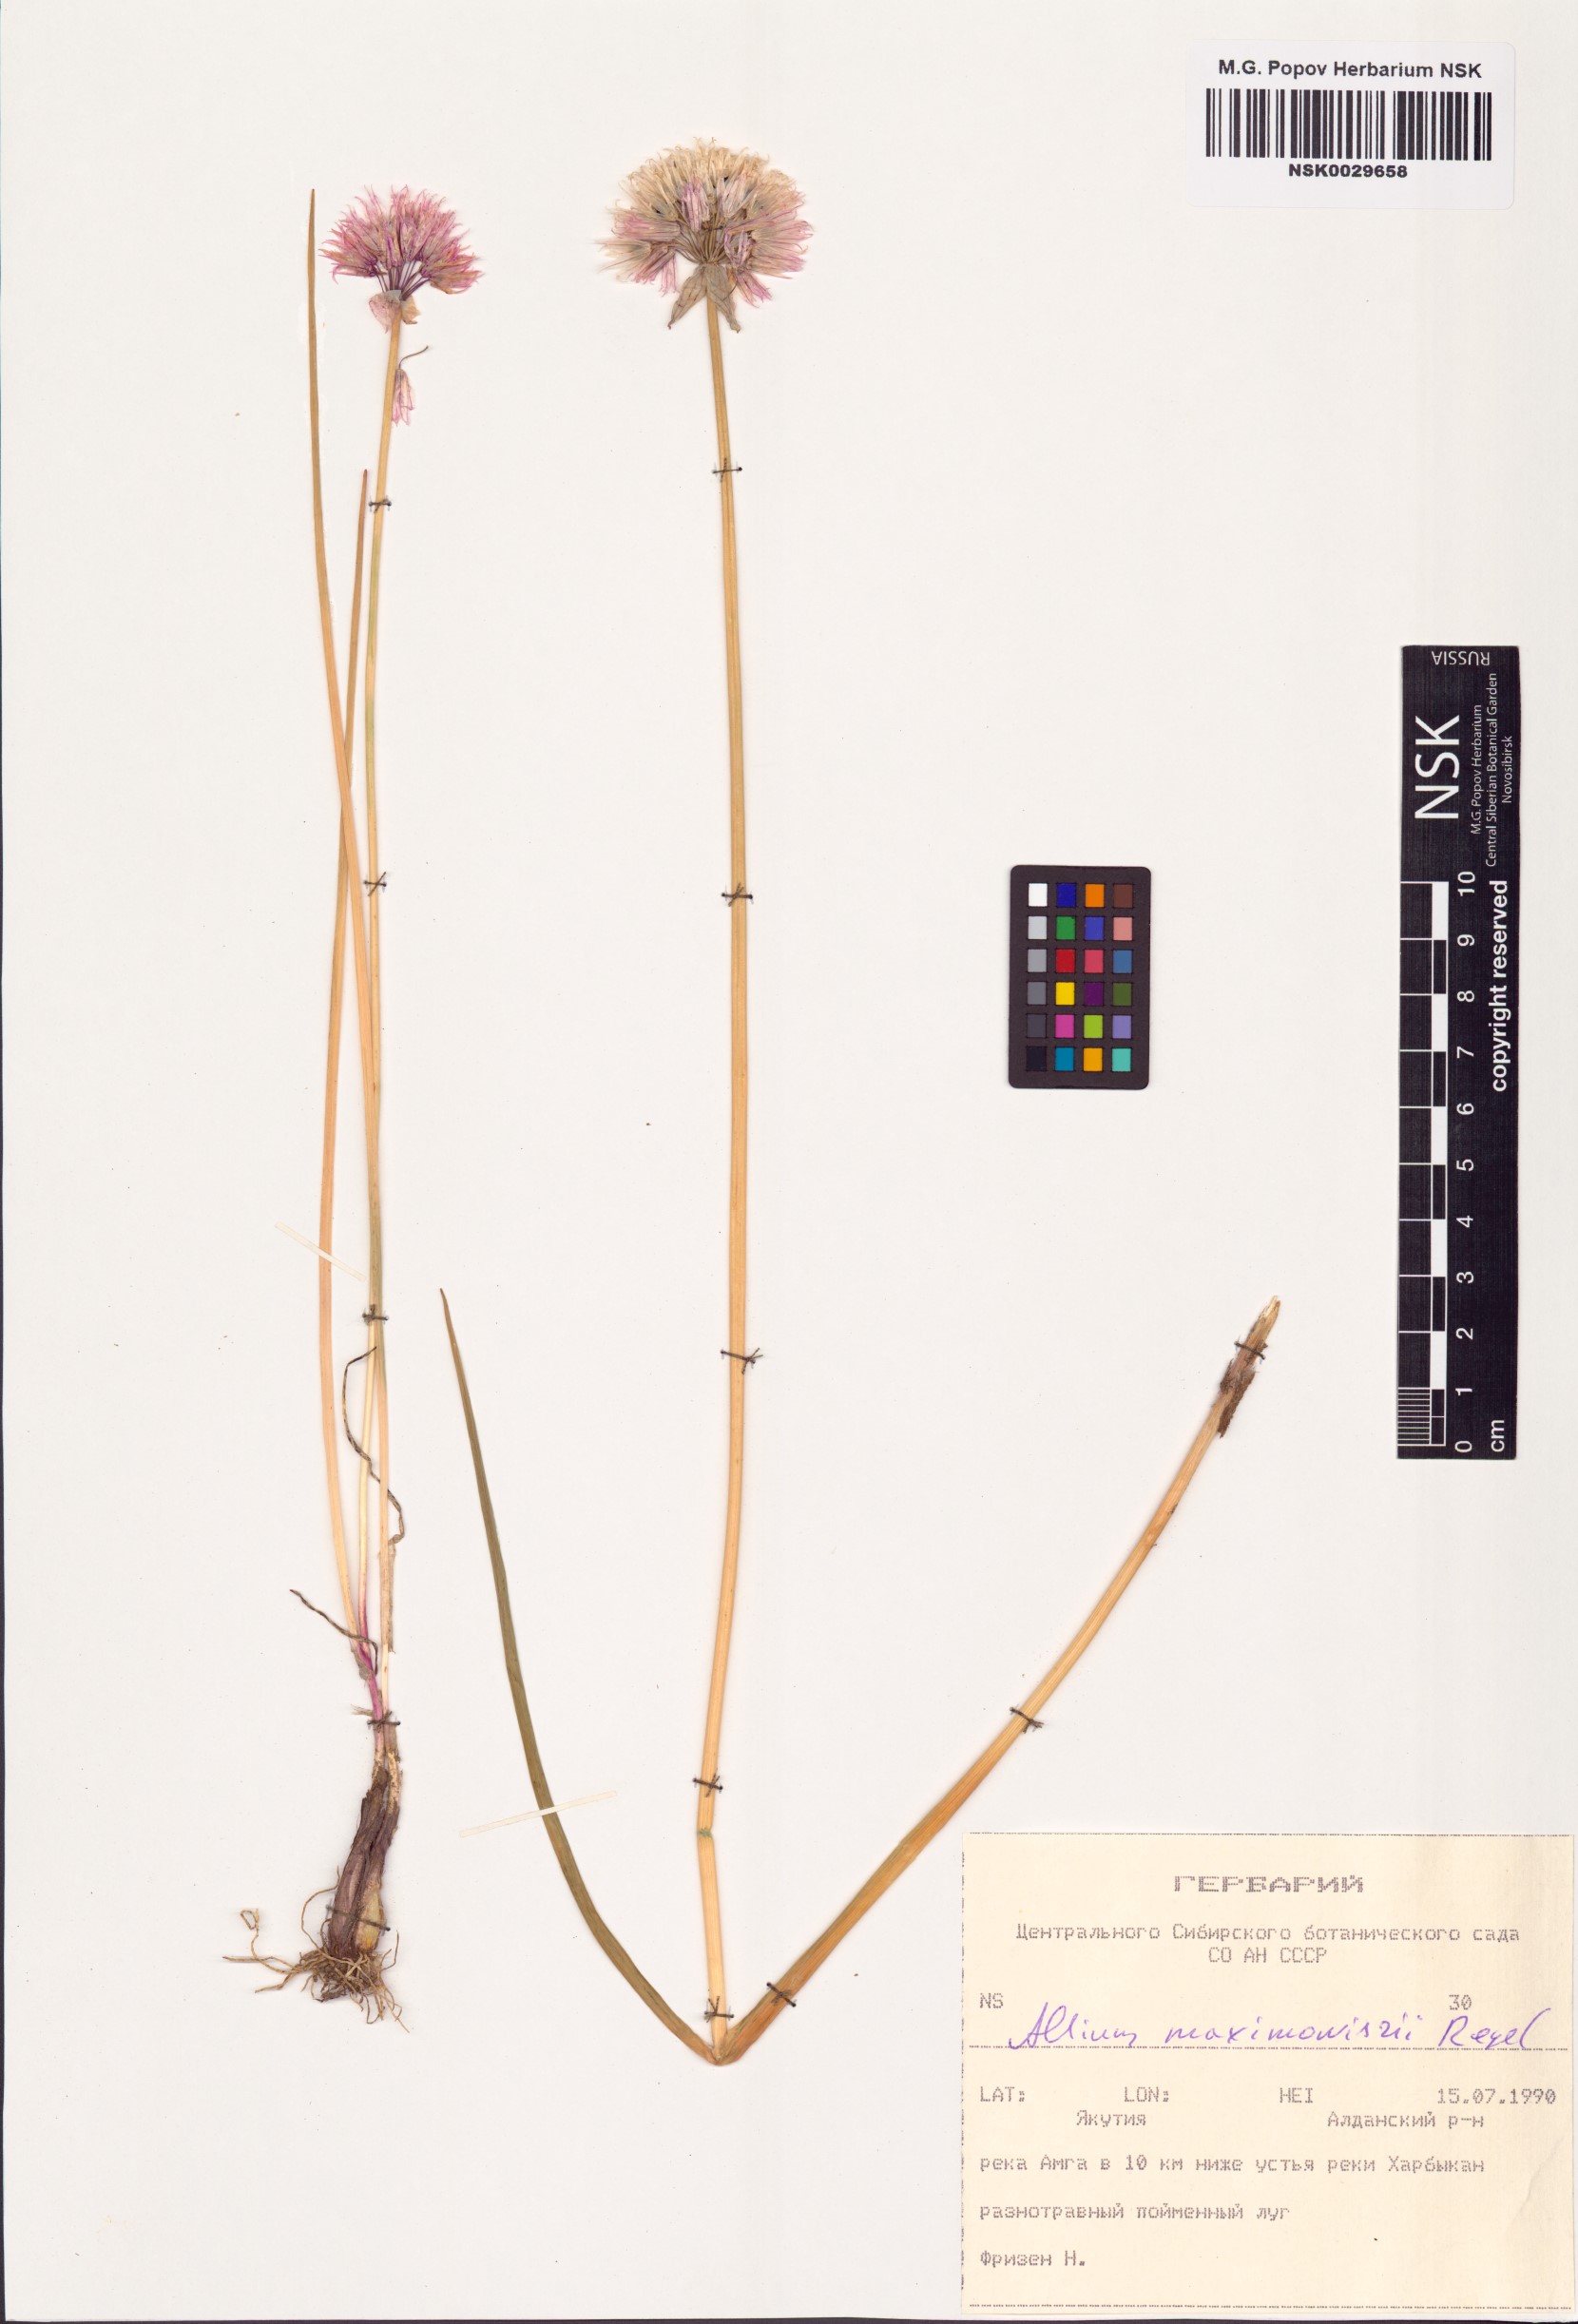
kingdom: Plantae
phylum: Tracheophyta
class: Liliopsida
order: Asparagales
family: Amaryllidaceae
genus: Allium
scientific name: Allium maximowiczii
